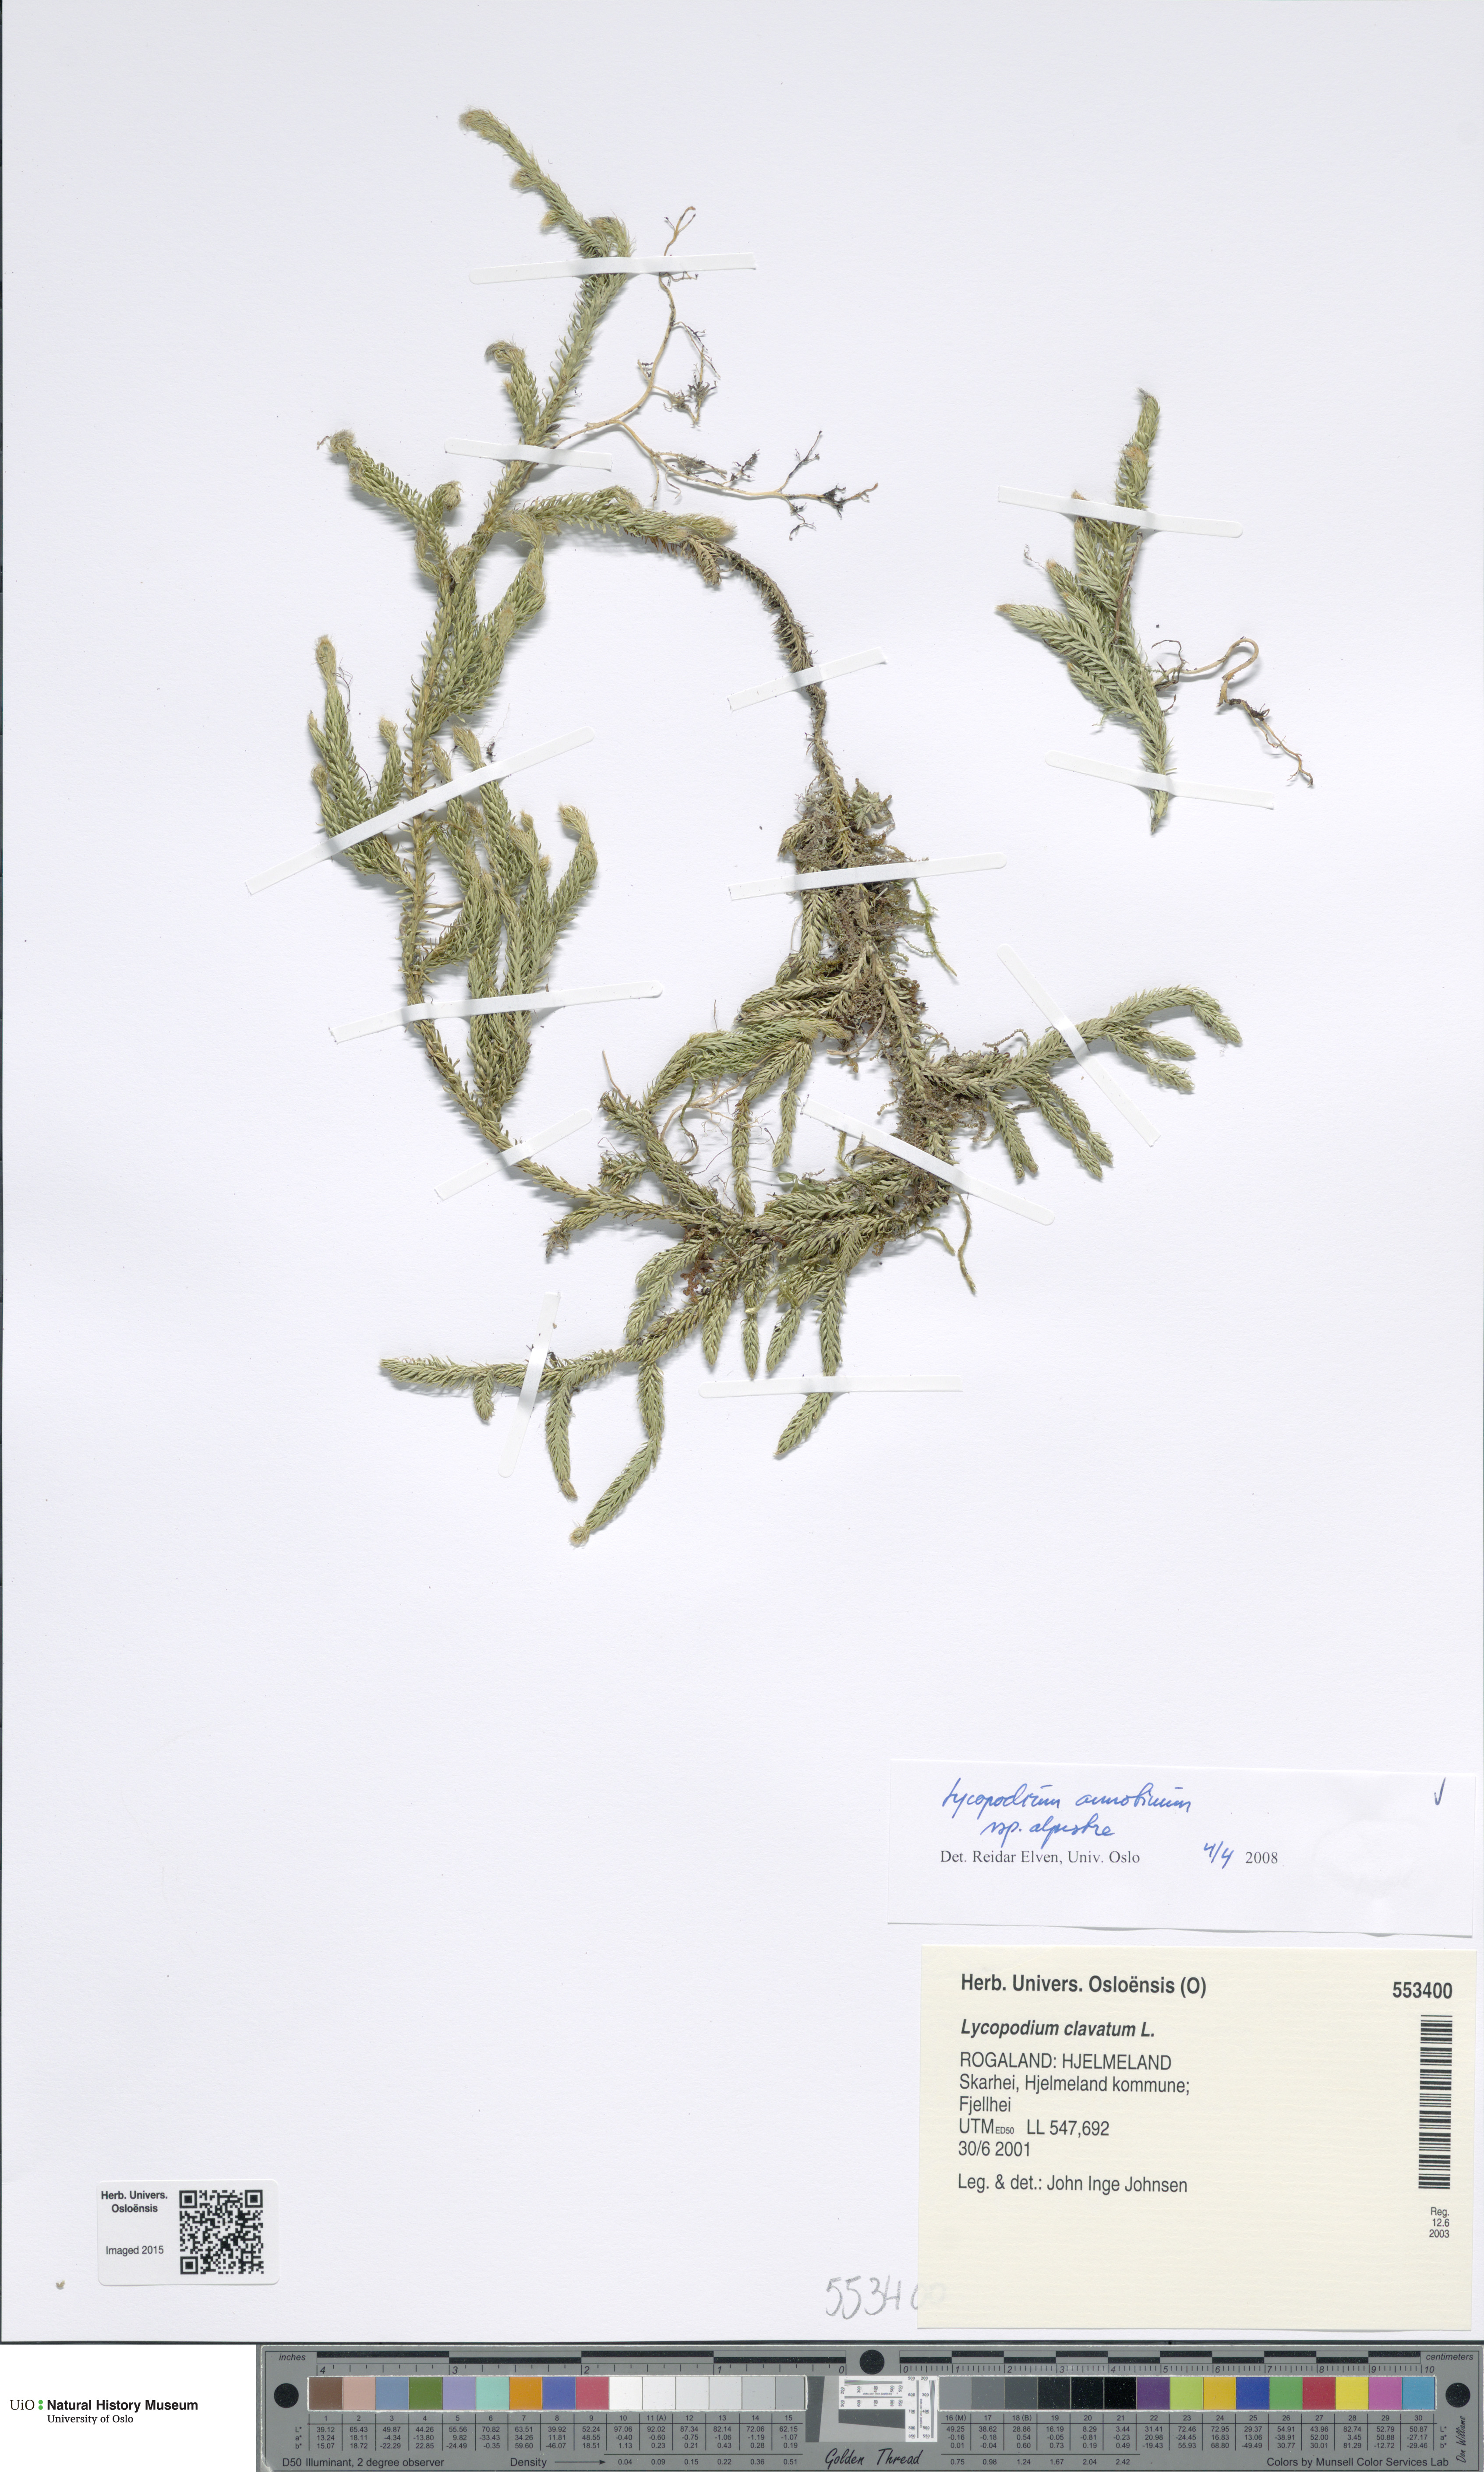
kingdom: Plantae
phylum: Tracheophyta
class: Lycopodiopsida
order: Lycopodiales
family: Lycopodiaceae
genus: Spinulum
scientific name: Spinulum annotinum
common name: Interrupted club-moss
